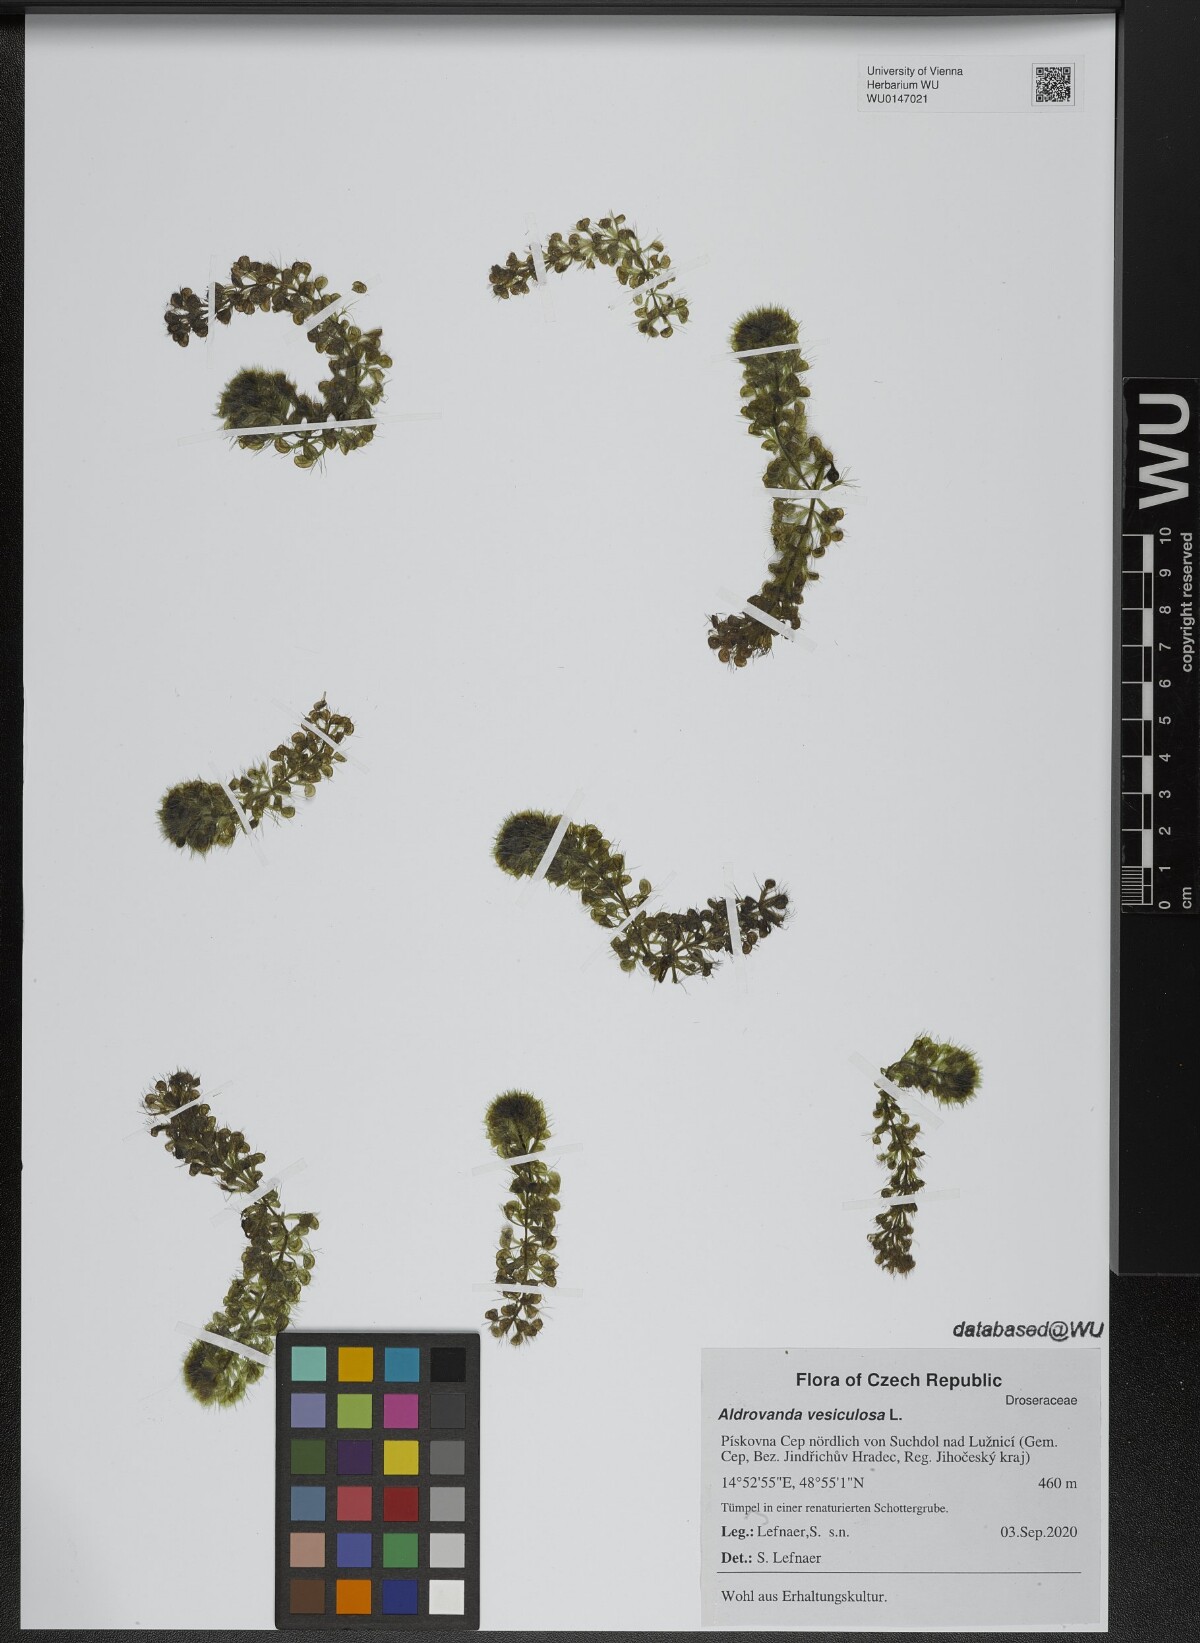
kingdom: Plantae
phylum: Tracheophyta
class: Magnoliopsida
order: Caryophyllales
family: Droseraceae
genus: Aldrovanda
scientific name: Aldrovanda vesiculosa
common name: Waterwheel plant
